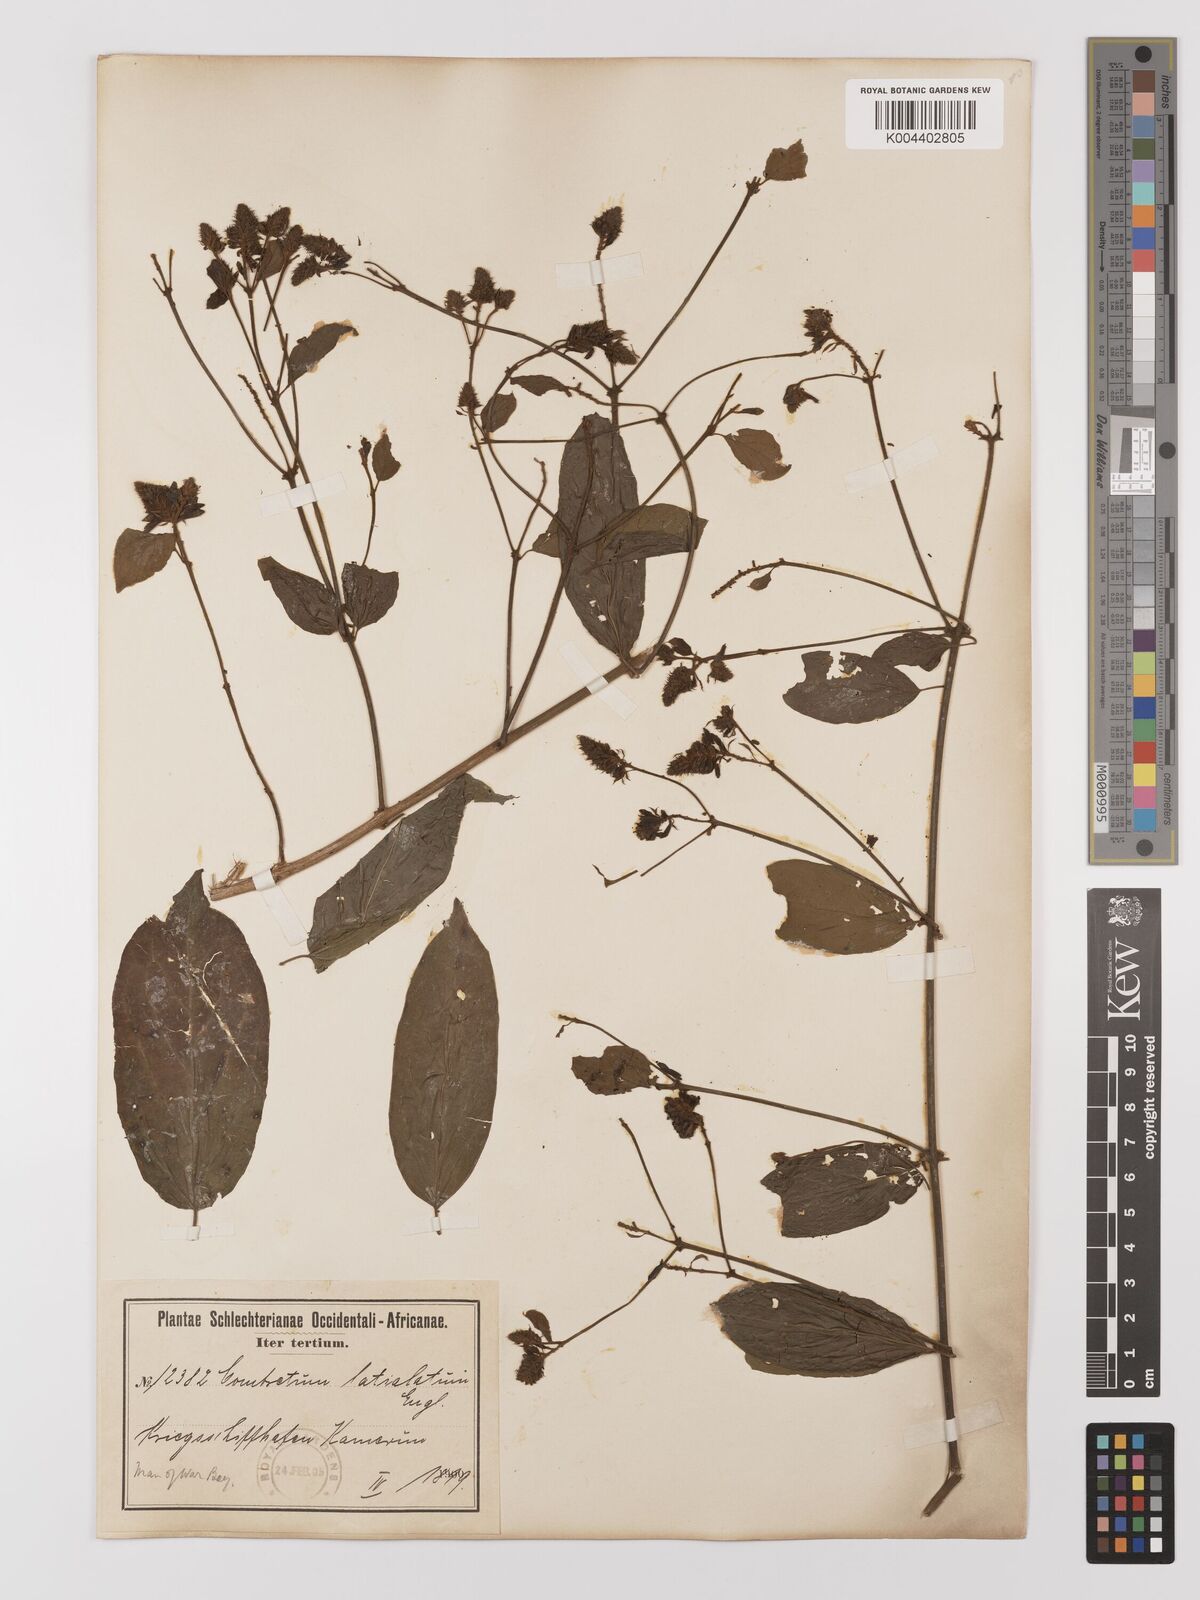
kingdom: Plantae
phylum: Tracheophyta
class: Magnoliopsida
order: Myrtales
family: Combretaceae
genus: Combretum
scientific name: Combretum latialatum
